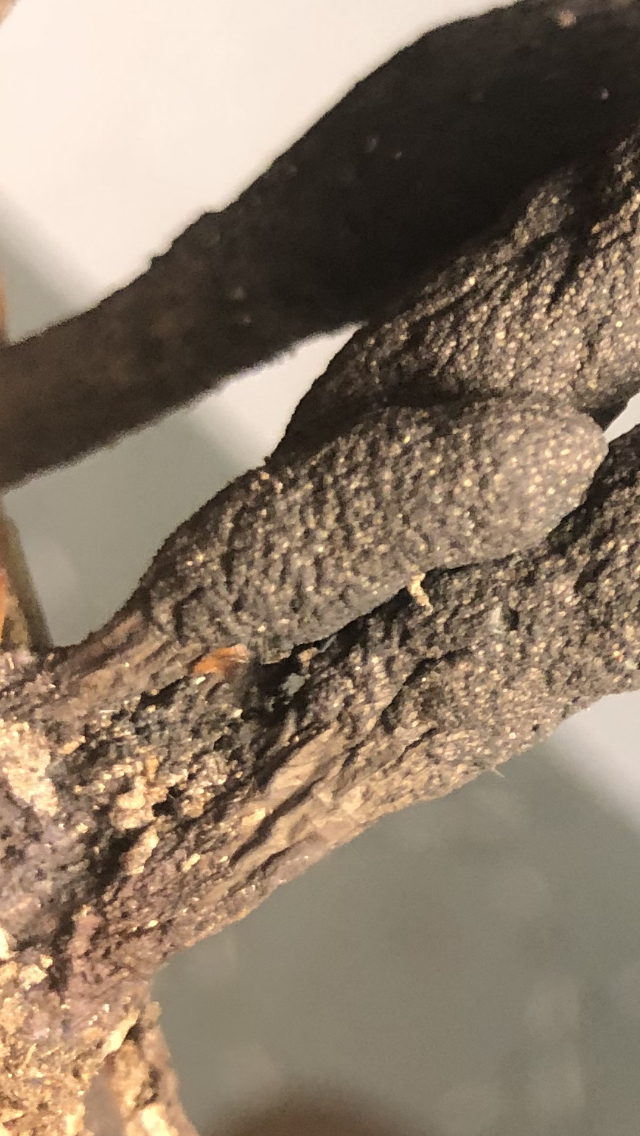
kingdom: Fungi
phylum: Ascomycota
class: Sordariomycetes
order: Xylariales
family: Xylariaceae
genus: Xylaria
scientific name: Xylaria longipes
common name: slank stødsvamp
